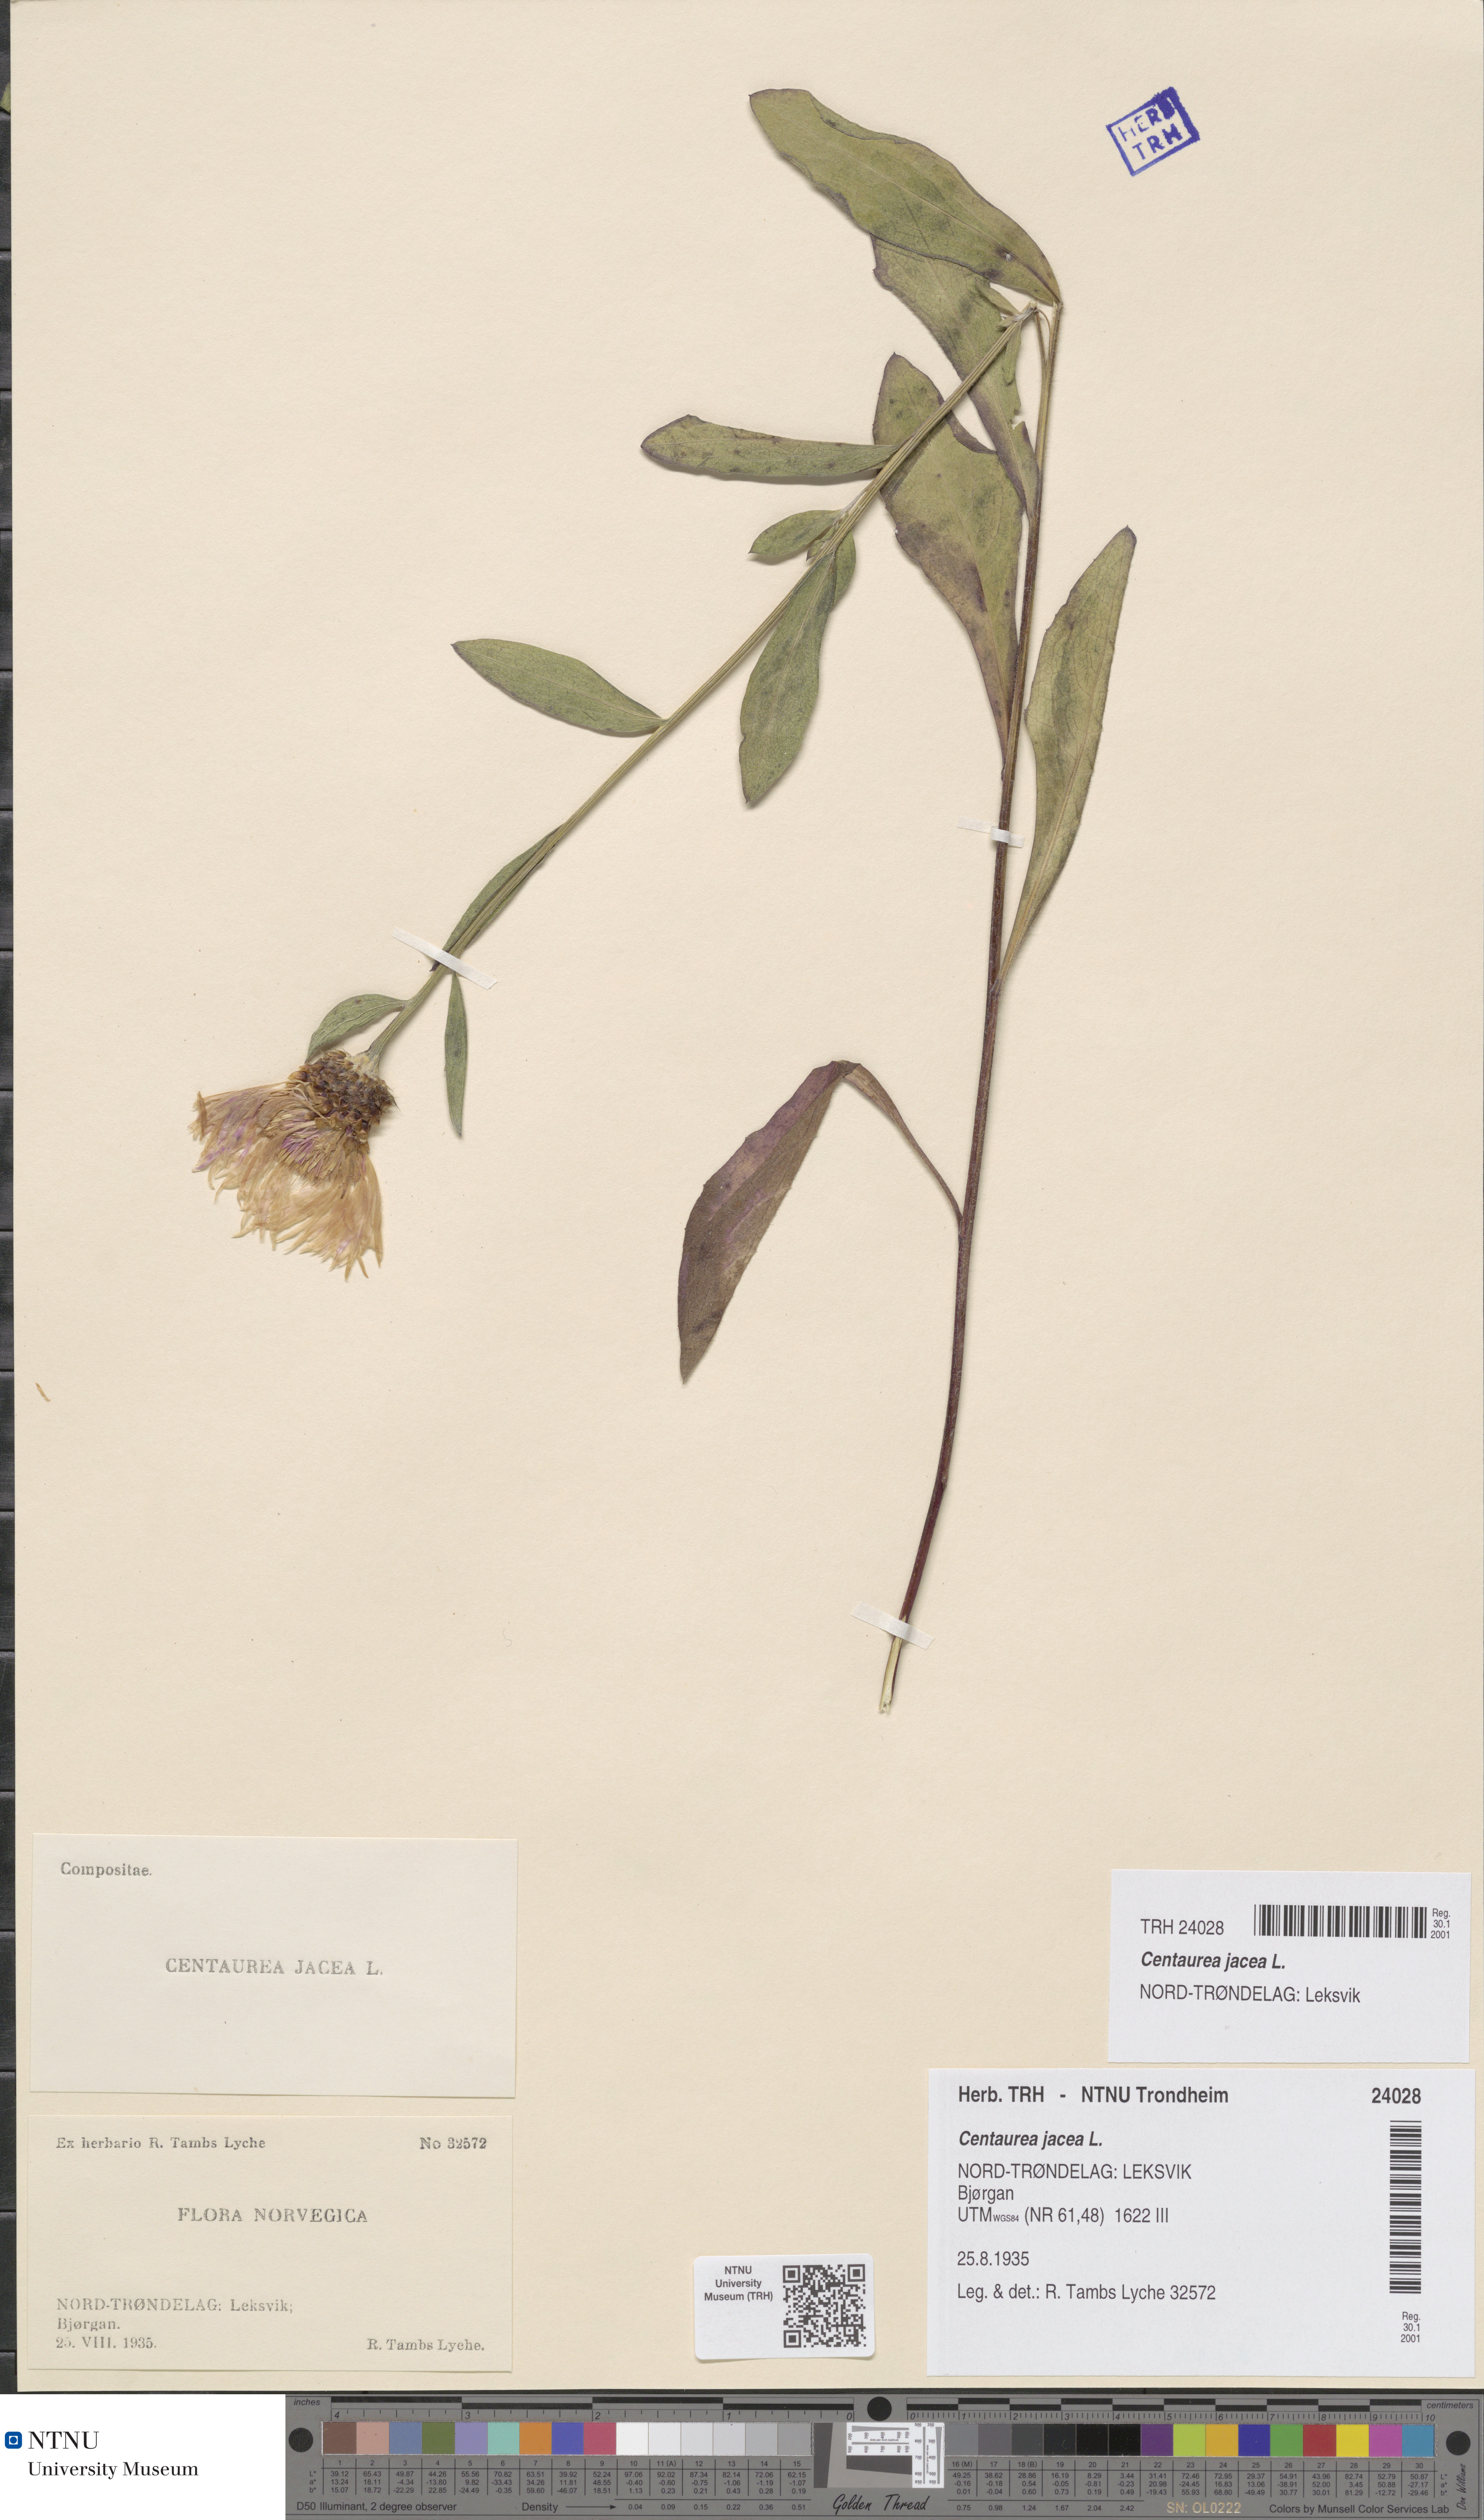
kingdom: Plantae
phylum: Tracheophyta
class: Magnoliopsida
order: Asterales
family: Asteraceae
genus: Centaurea
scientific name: Centaurea jacea
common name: Brown knapweed
